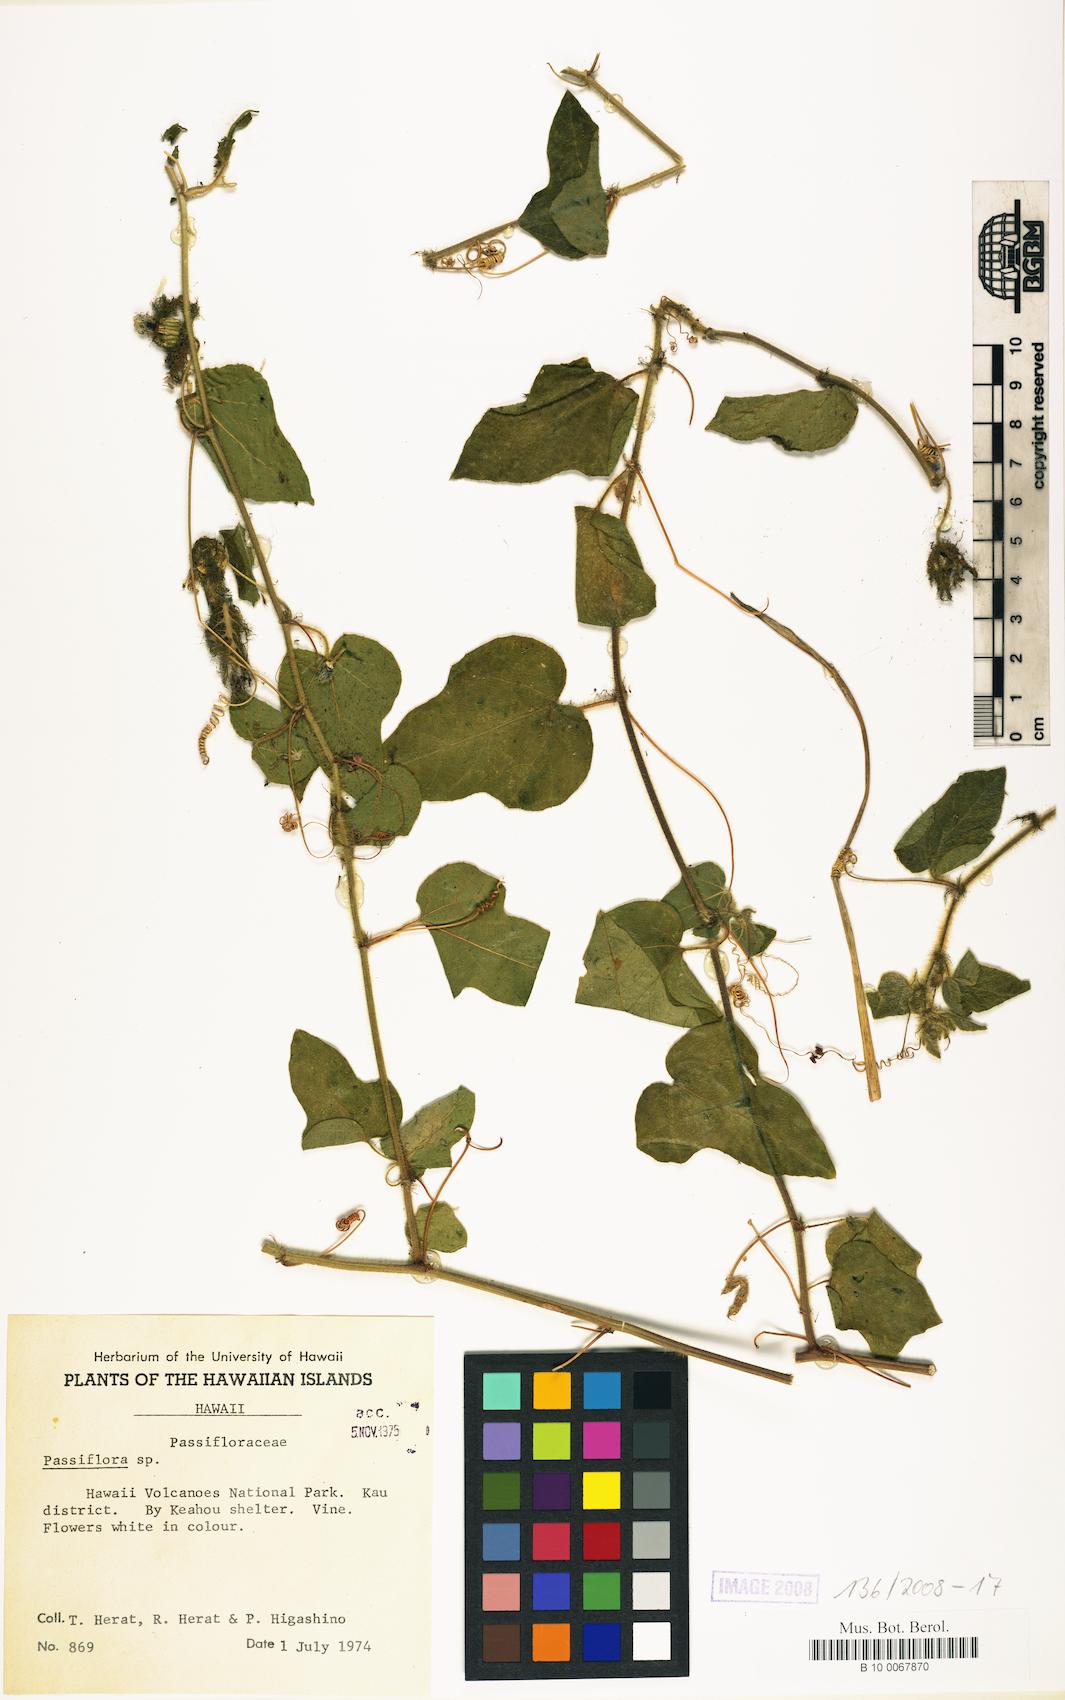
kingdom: Plantae
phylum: Tracheophyta
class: Magnoliopsida
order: Malpighiales
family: Passifloraceae
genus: Passiflora
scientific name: Passiflora foetida
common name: Fetid passionflower
